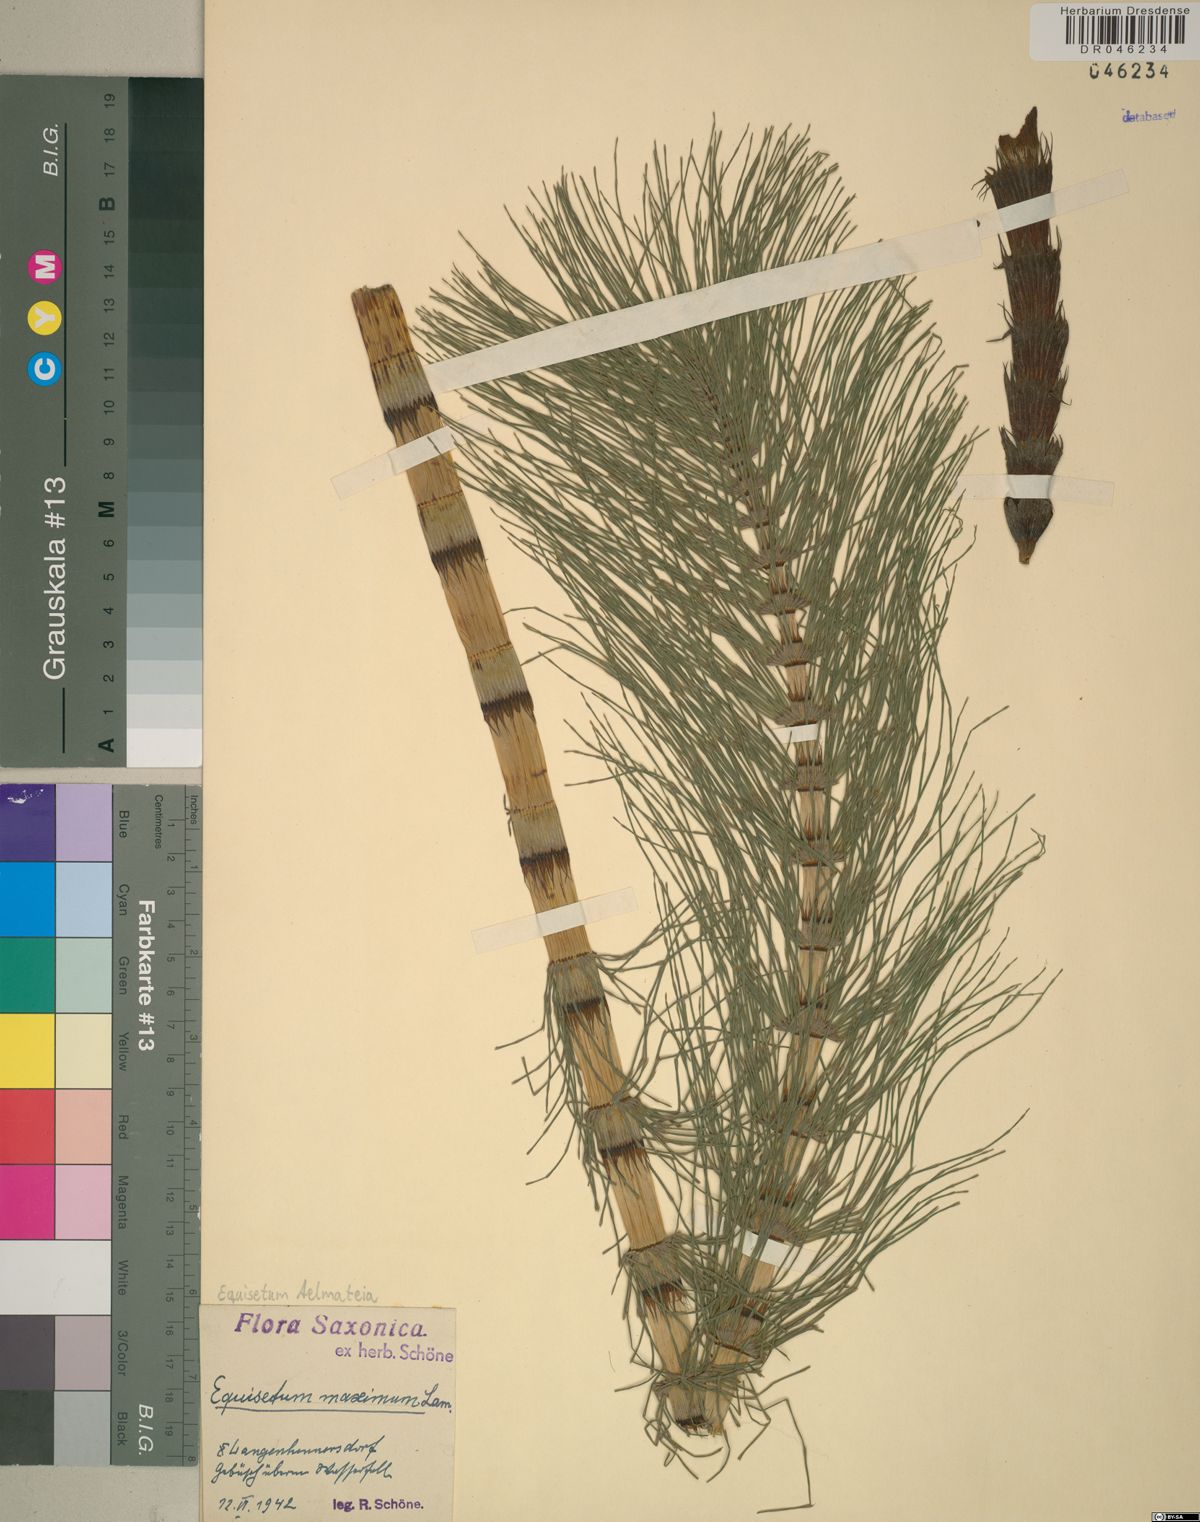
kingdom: Plantae
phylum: Tracheophyta
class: Polypodiopsida
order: Equisetales
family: Equisetaceae
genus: Equisetum
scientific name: Equisetum telmateia
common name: Great horsetail
